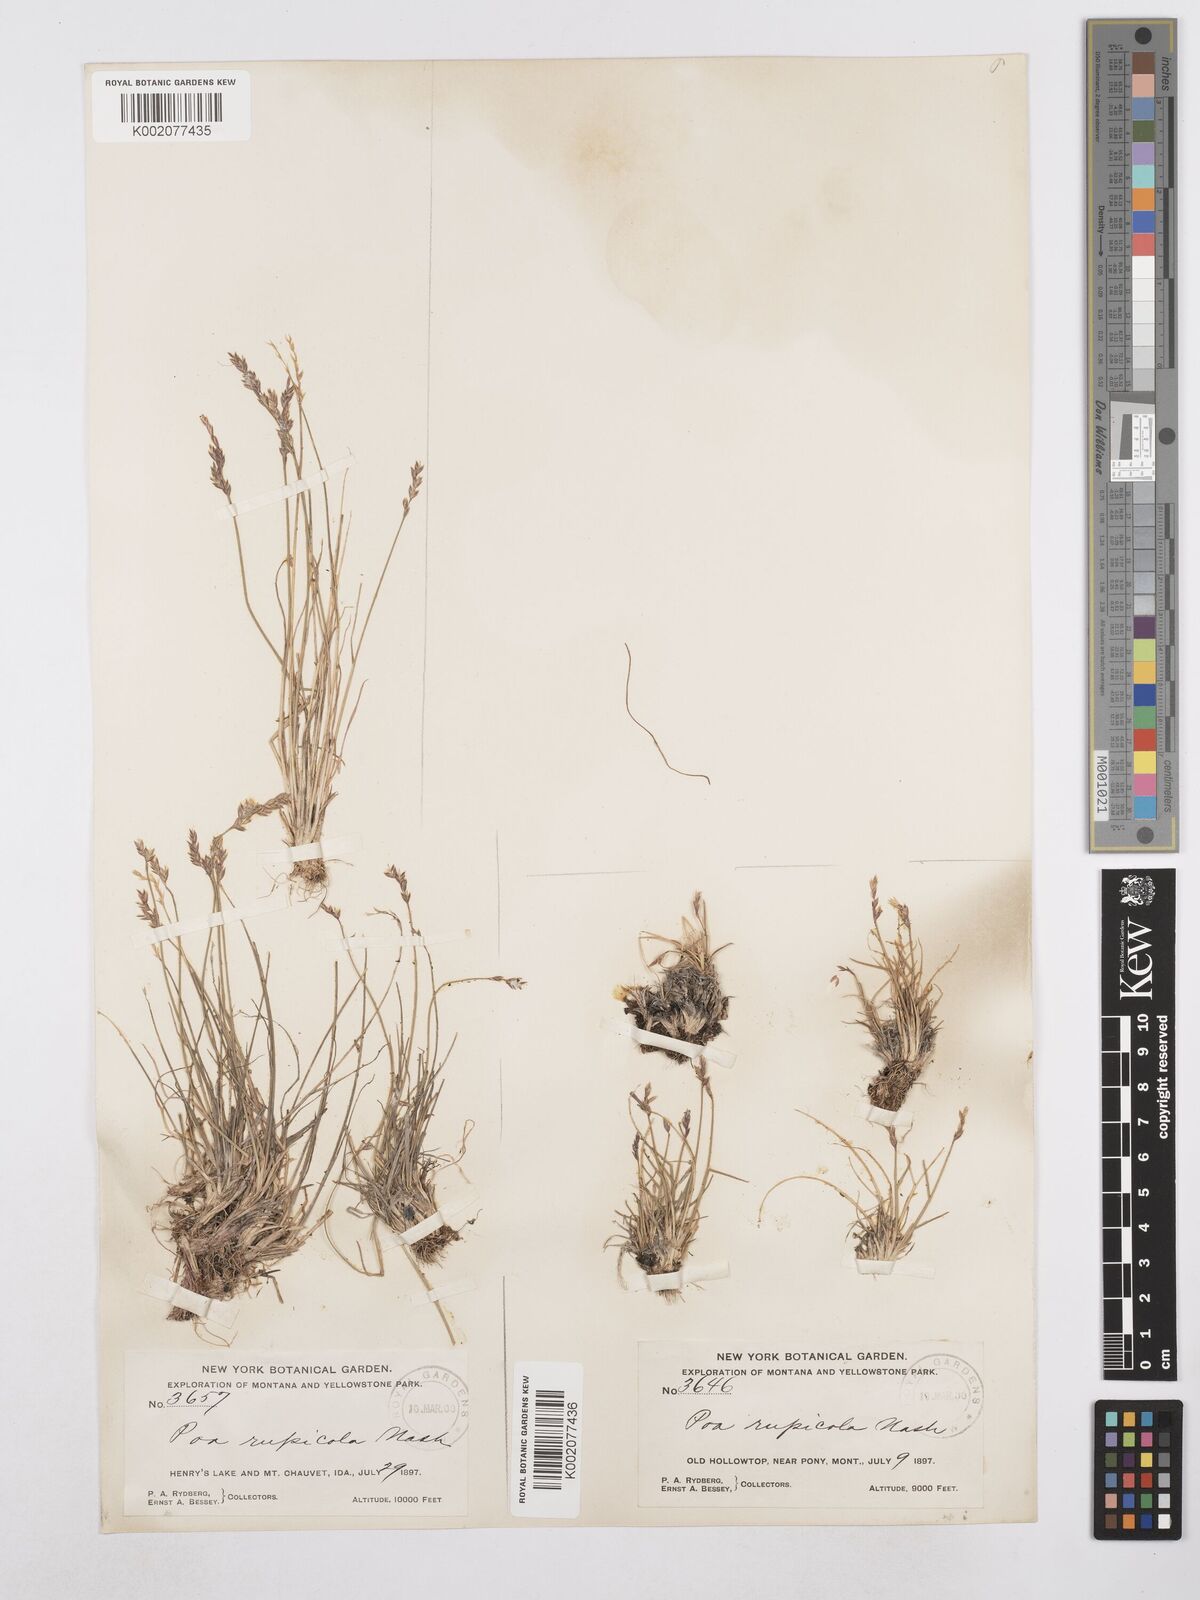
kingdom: Plantae
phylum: Tracheophyta
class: Liliopsida
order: Poales
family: Poaceae
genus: Poa
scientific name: Poa glauca
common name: Glaucous bluegrass
